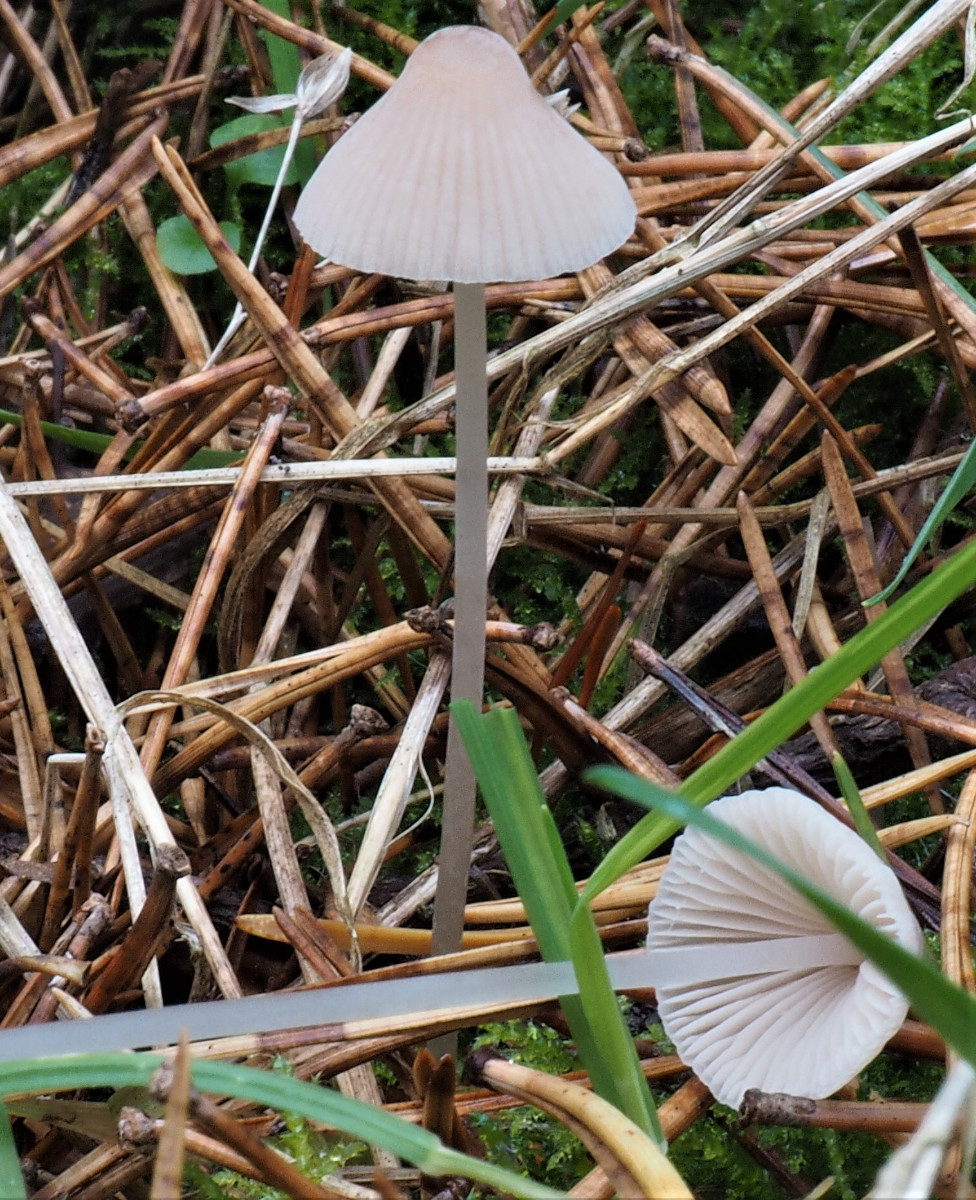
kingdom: Fungi
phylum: Basidiomycota
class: Agaricomycetes
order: Agaricales
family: Mycenaceae
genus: Mycena
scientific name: Mycena metata
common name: rødlig huesvamp
